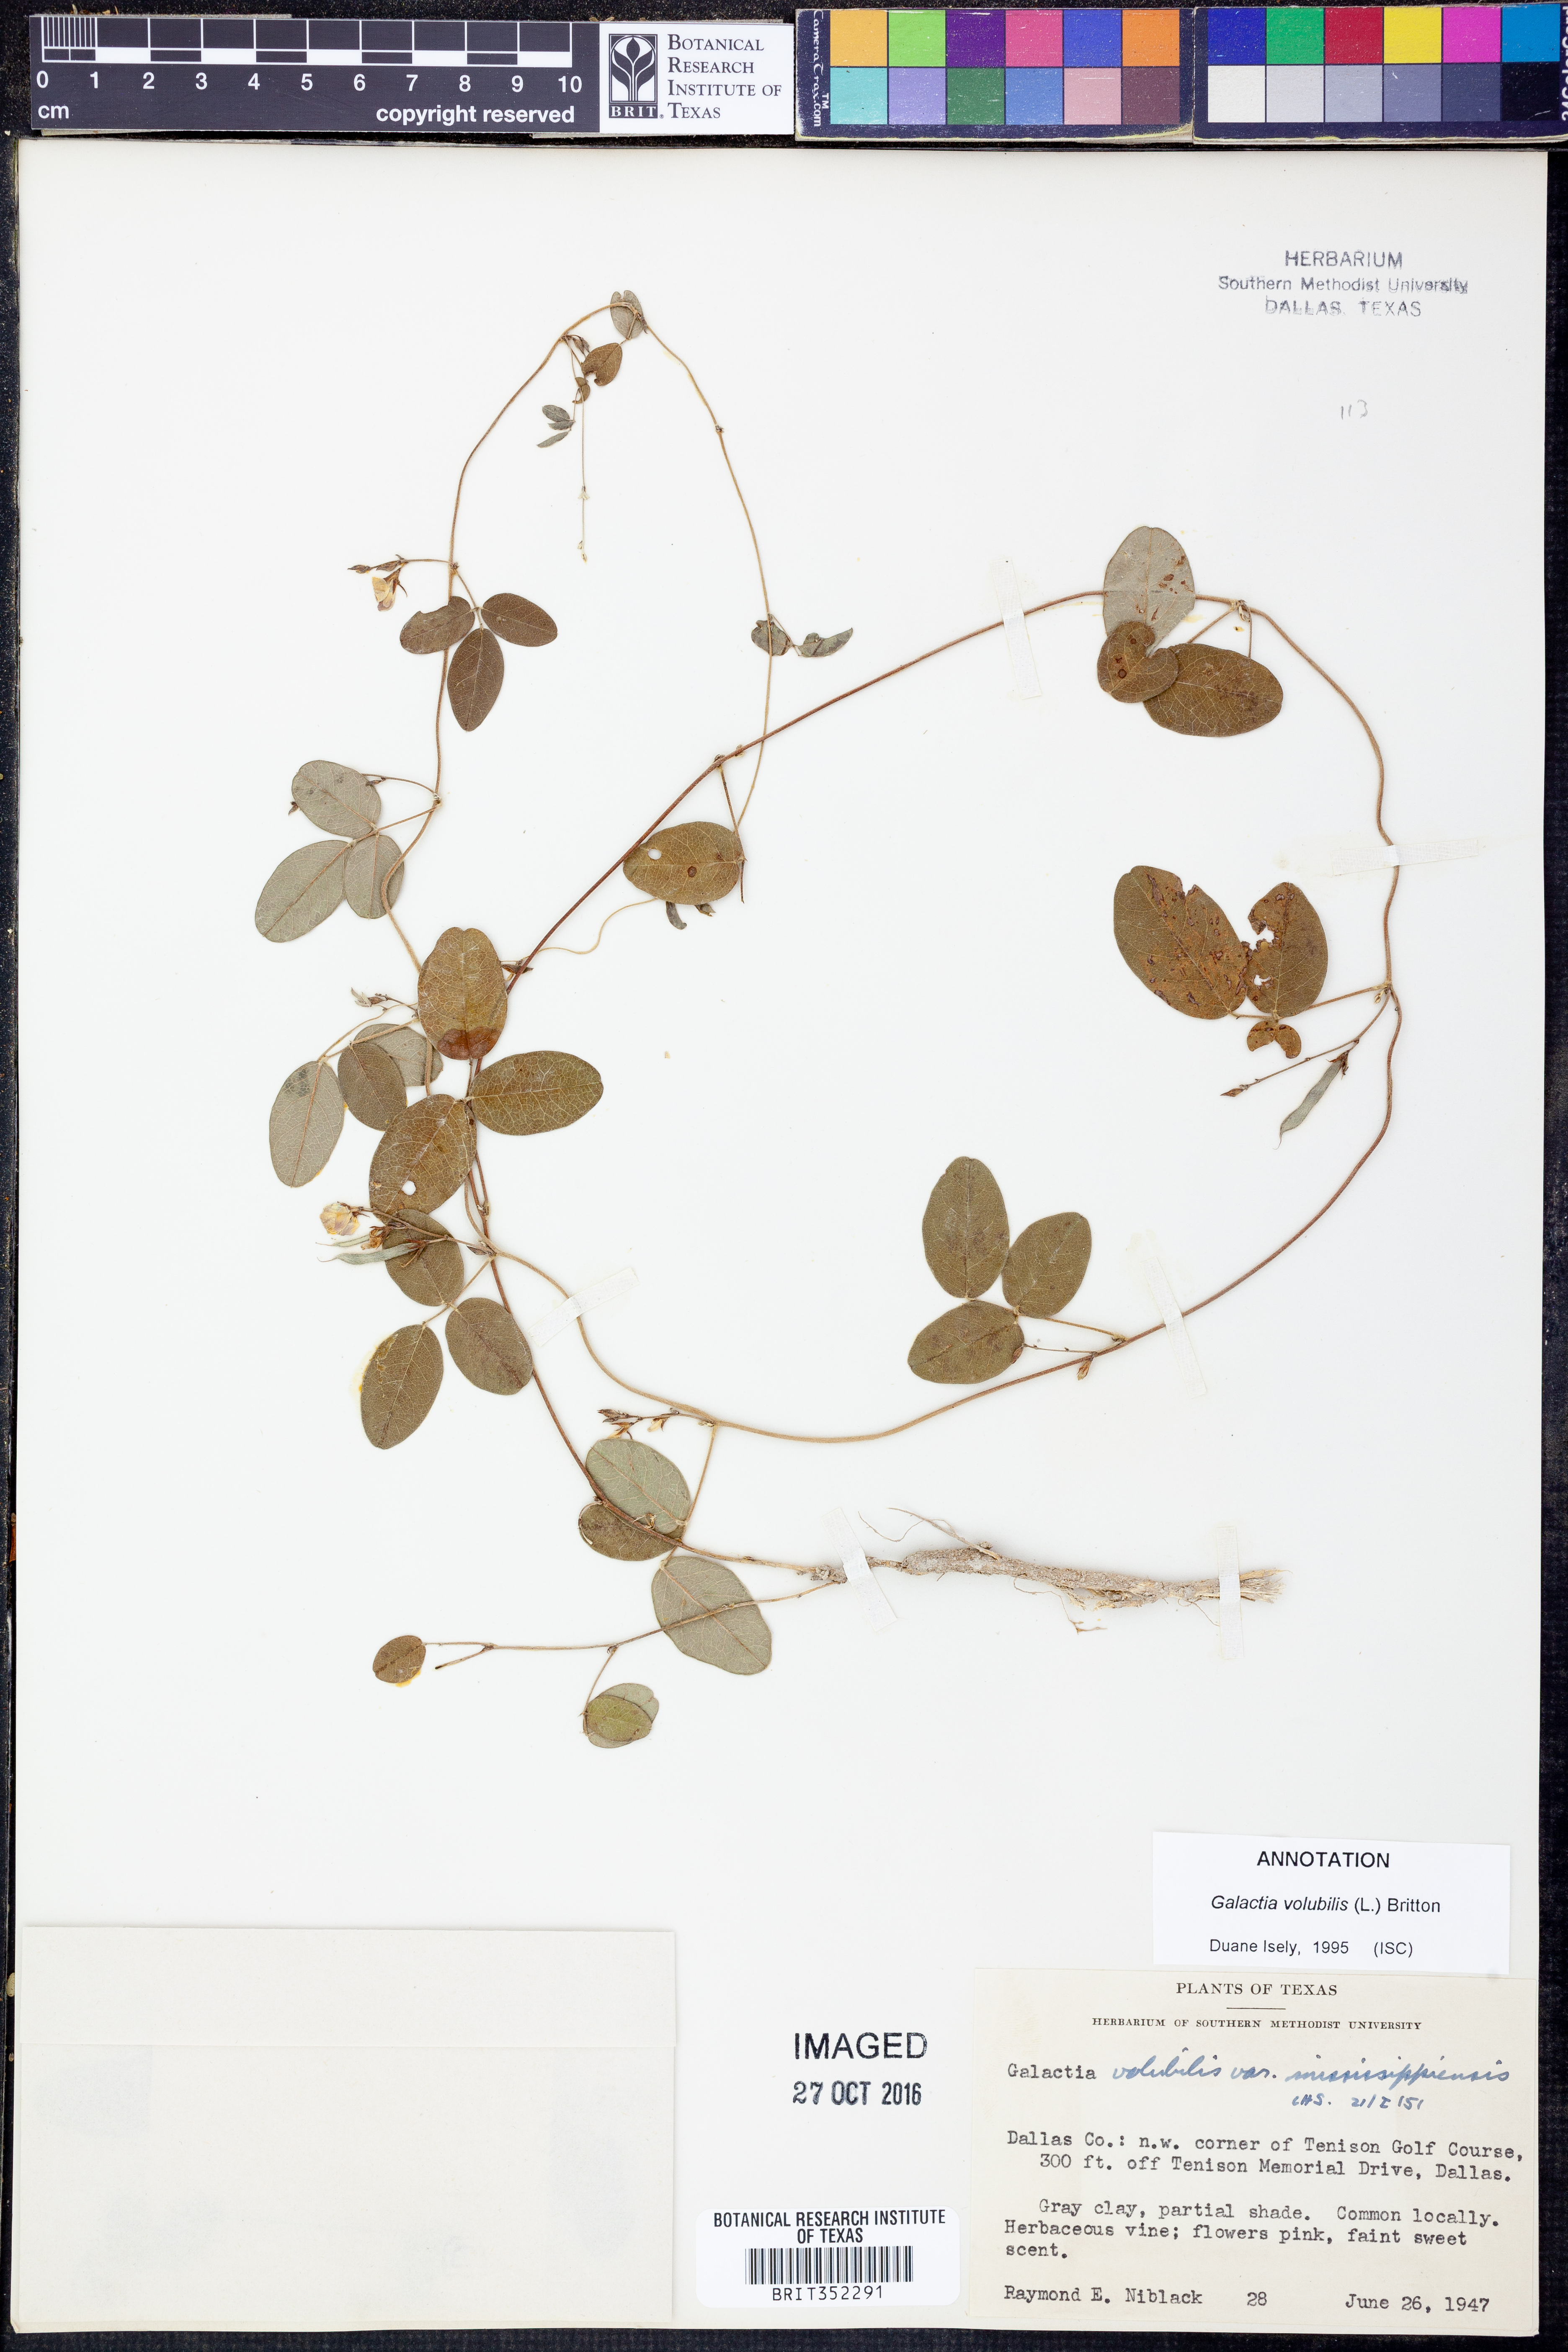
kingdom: Plantae
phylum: Tracheophyta
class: Magnoliopsida
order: Fabales
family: Fabaceae
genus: Galactia
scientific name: Galactia volubilis
